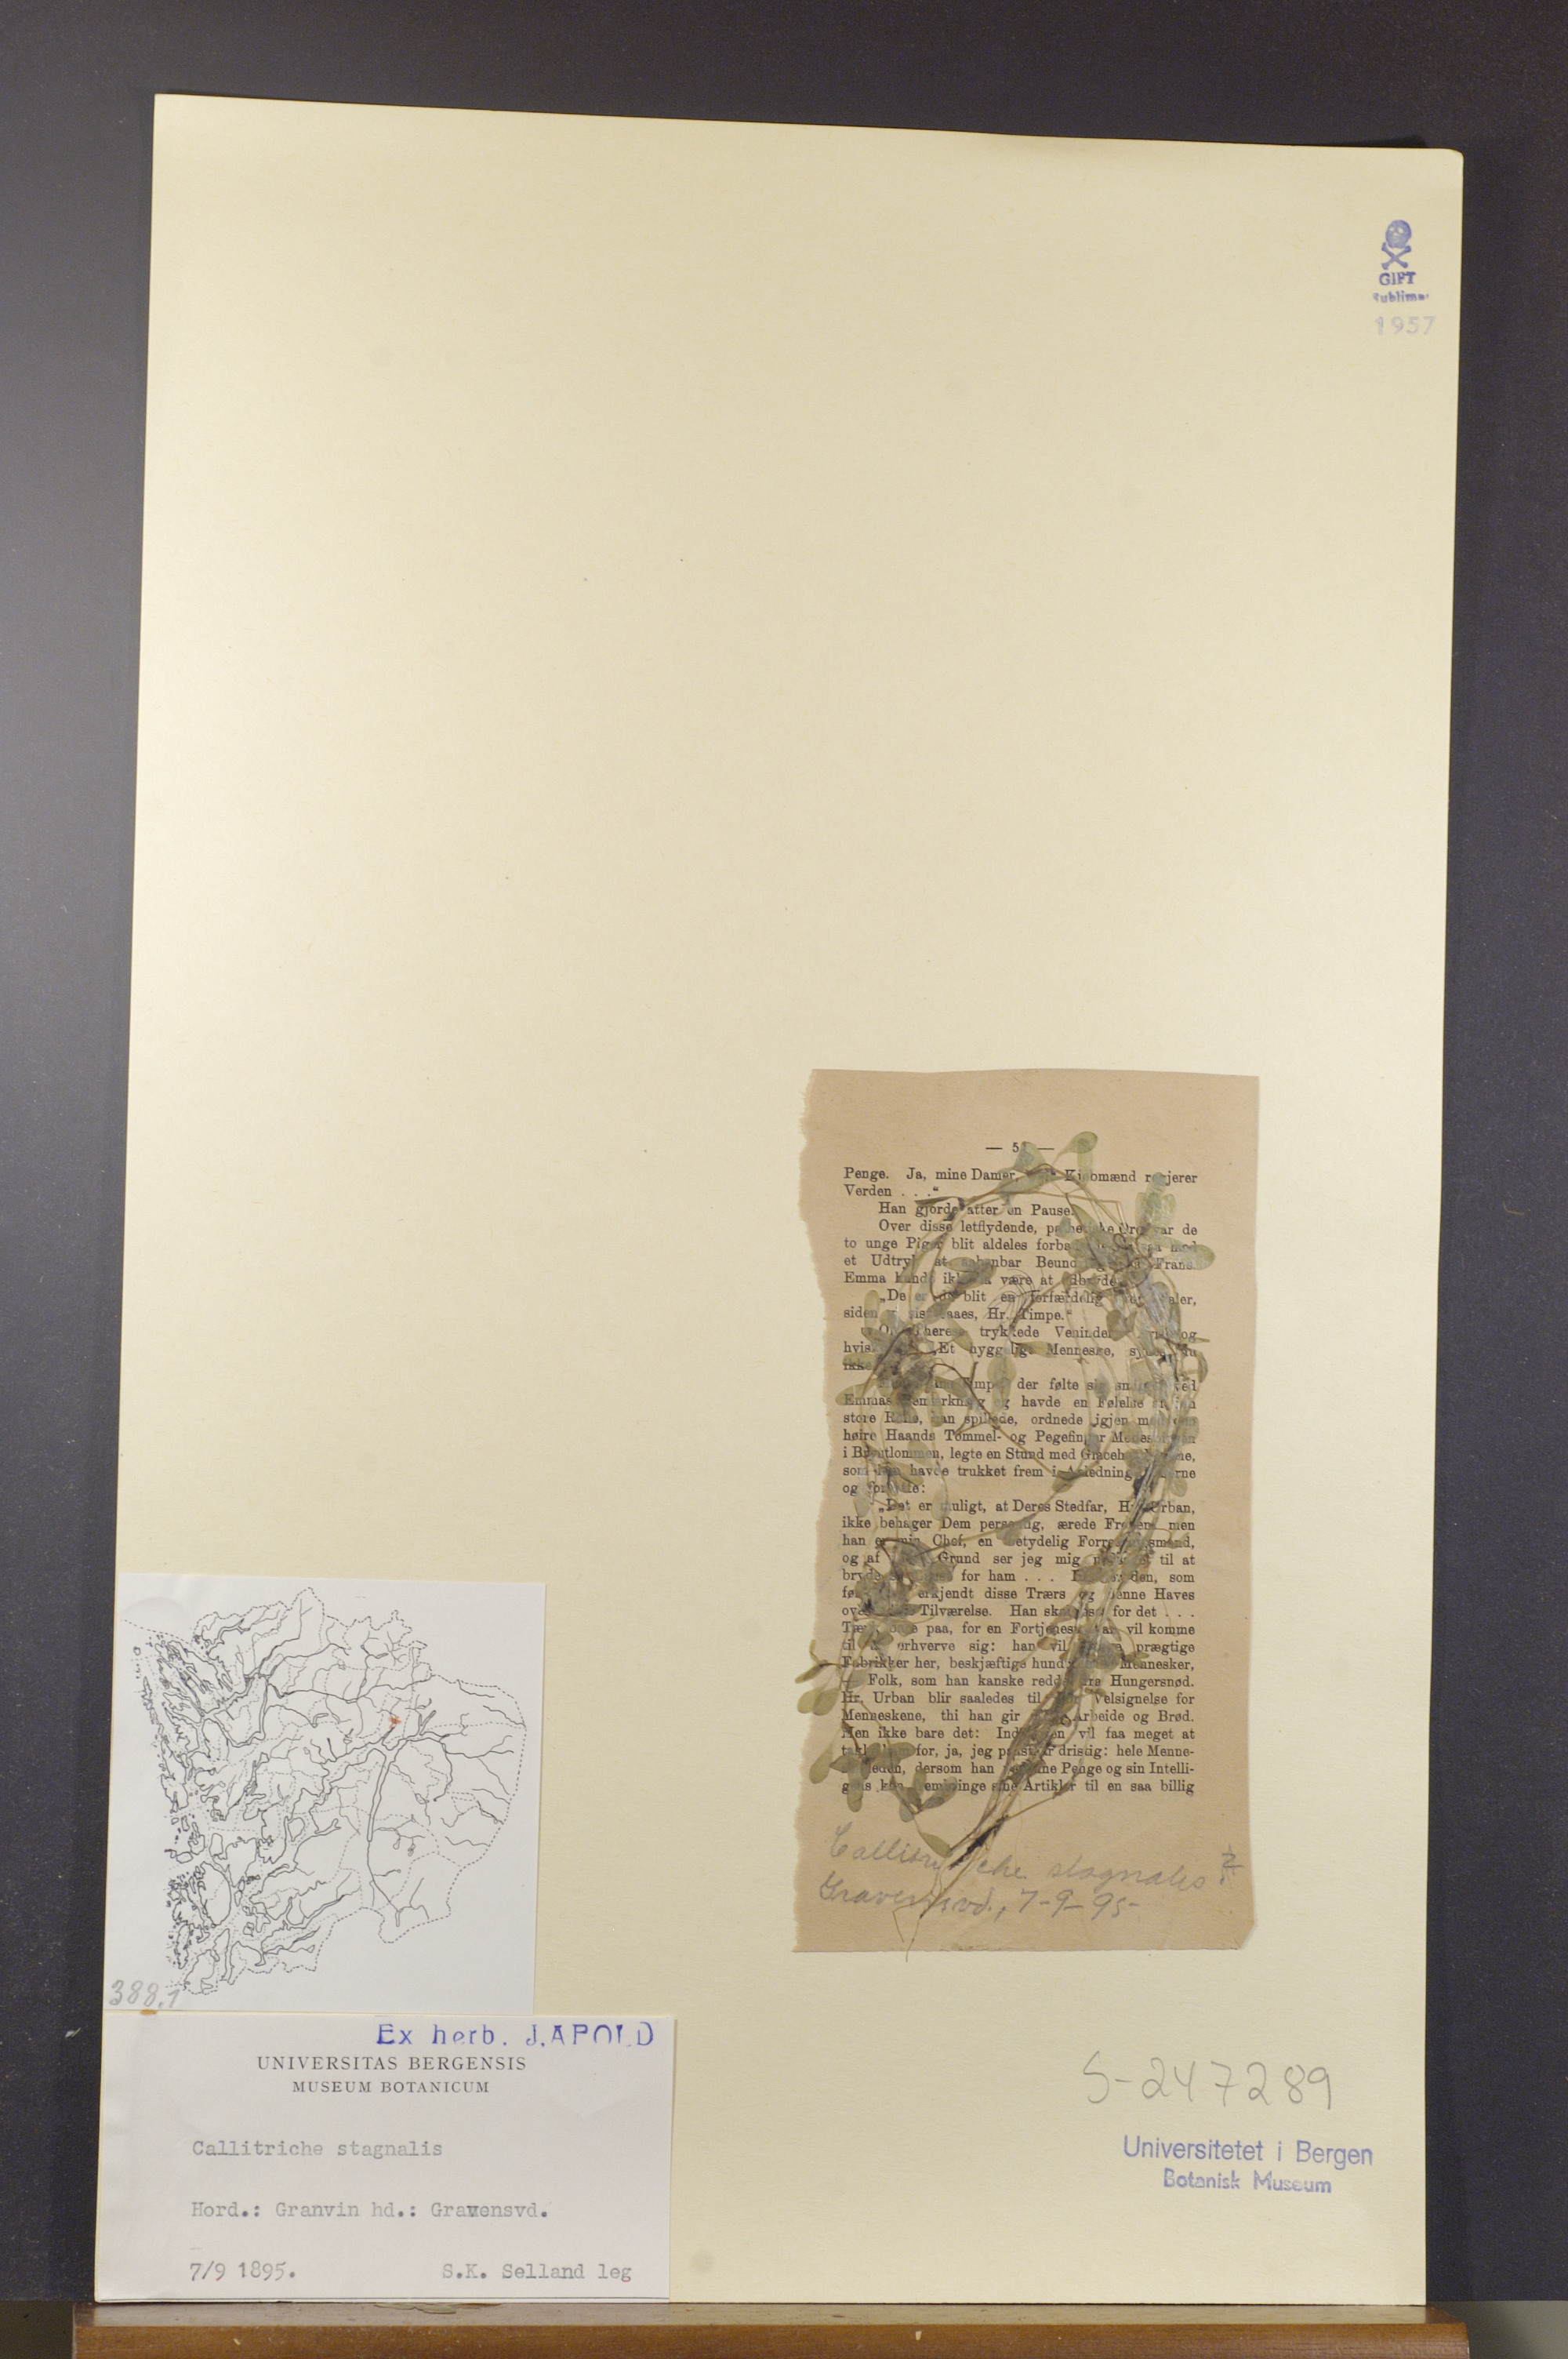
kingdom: Plantae
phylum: Tracheophyta
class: Magnoliopsida
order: Lamiales
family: Plantaginaceae
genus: Callitriche
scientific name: Callitriche stagnalis
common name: Common water-starwort
